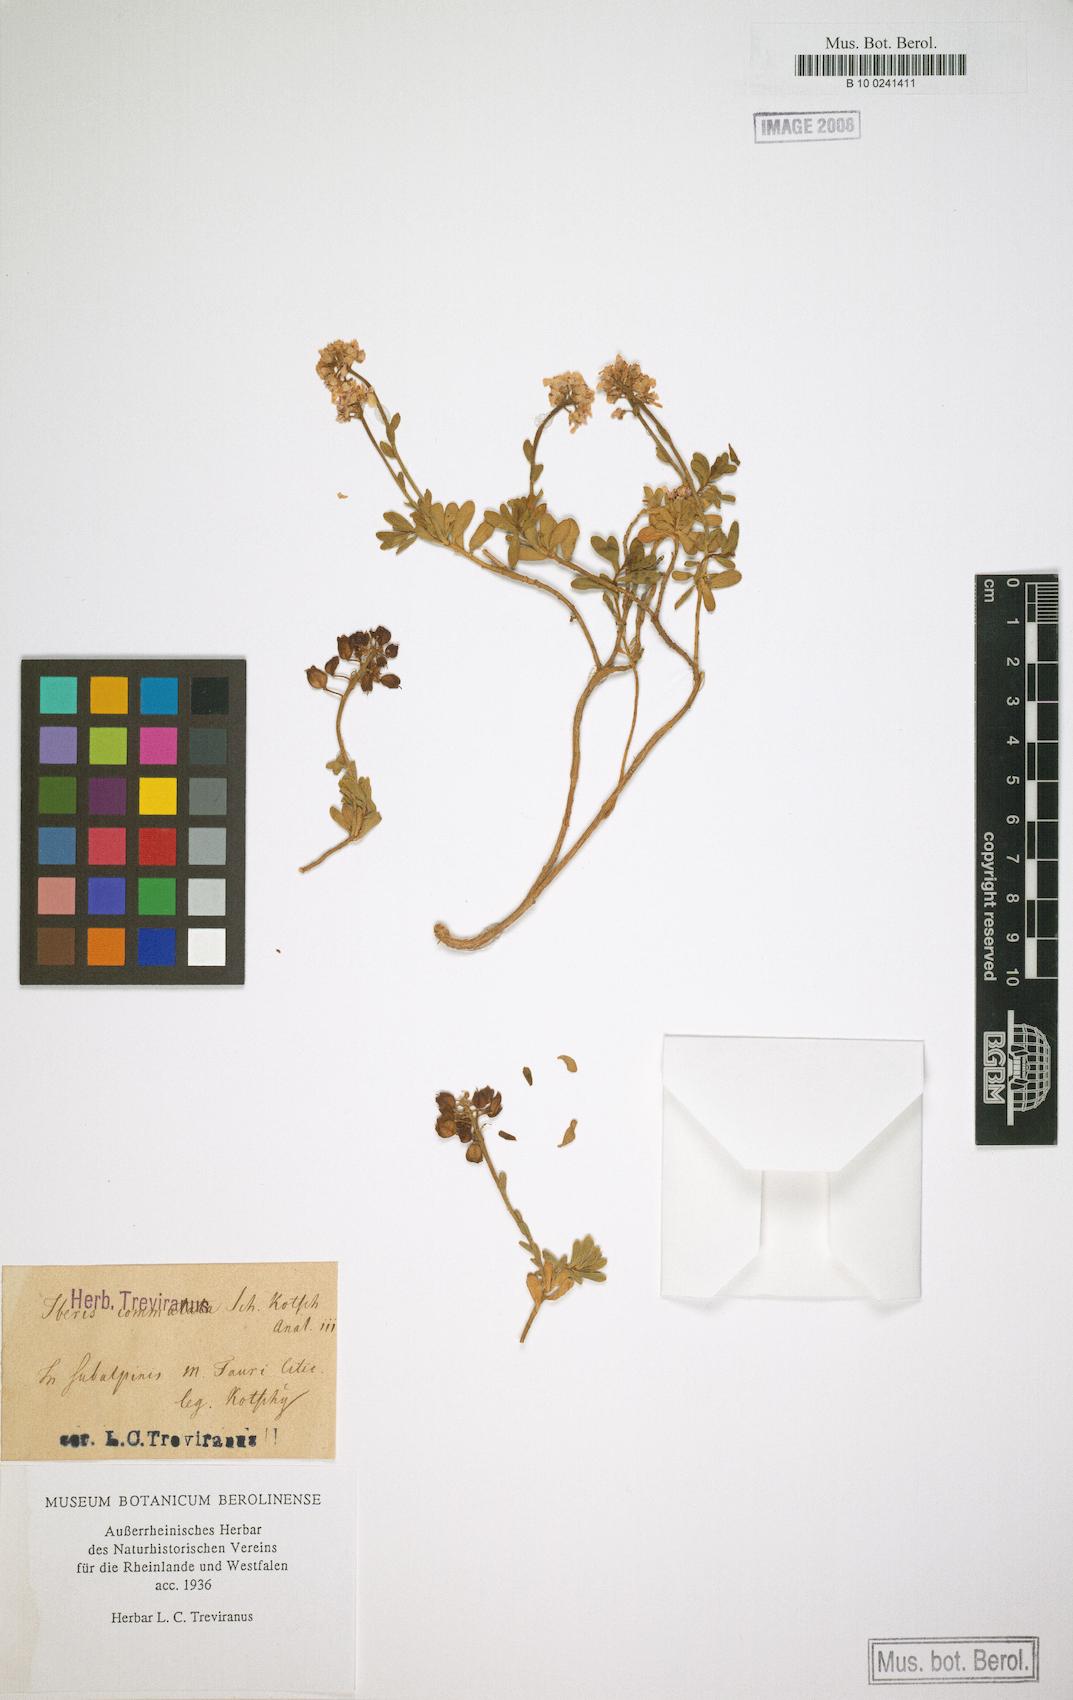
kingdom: Plantae
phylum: Tracheophyta
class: Magnoliopsida
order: Brassicales
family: Brassicaceae
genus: Iberis
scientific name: Iberis sempervirens
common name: Evergreen candytuft
